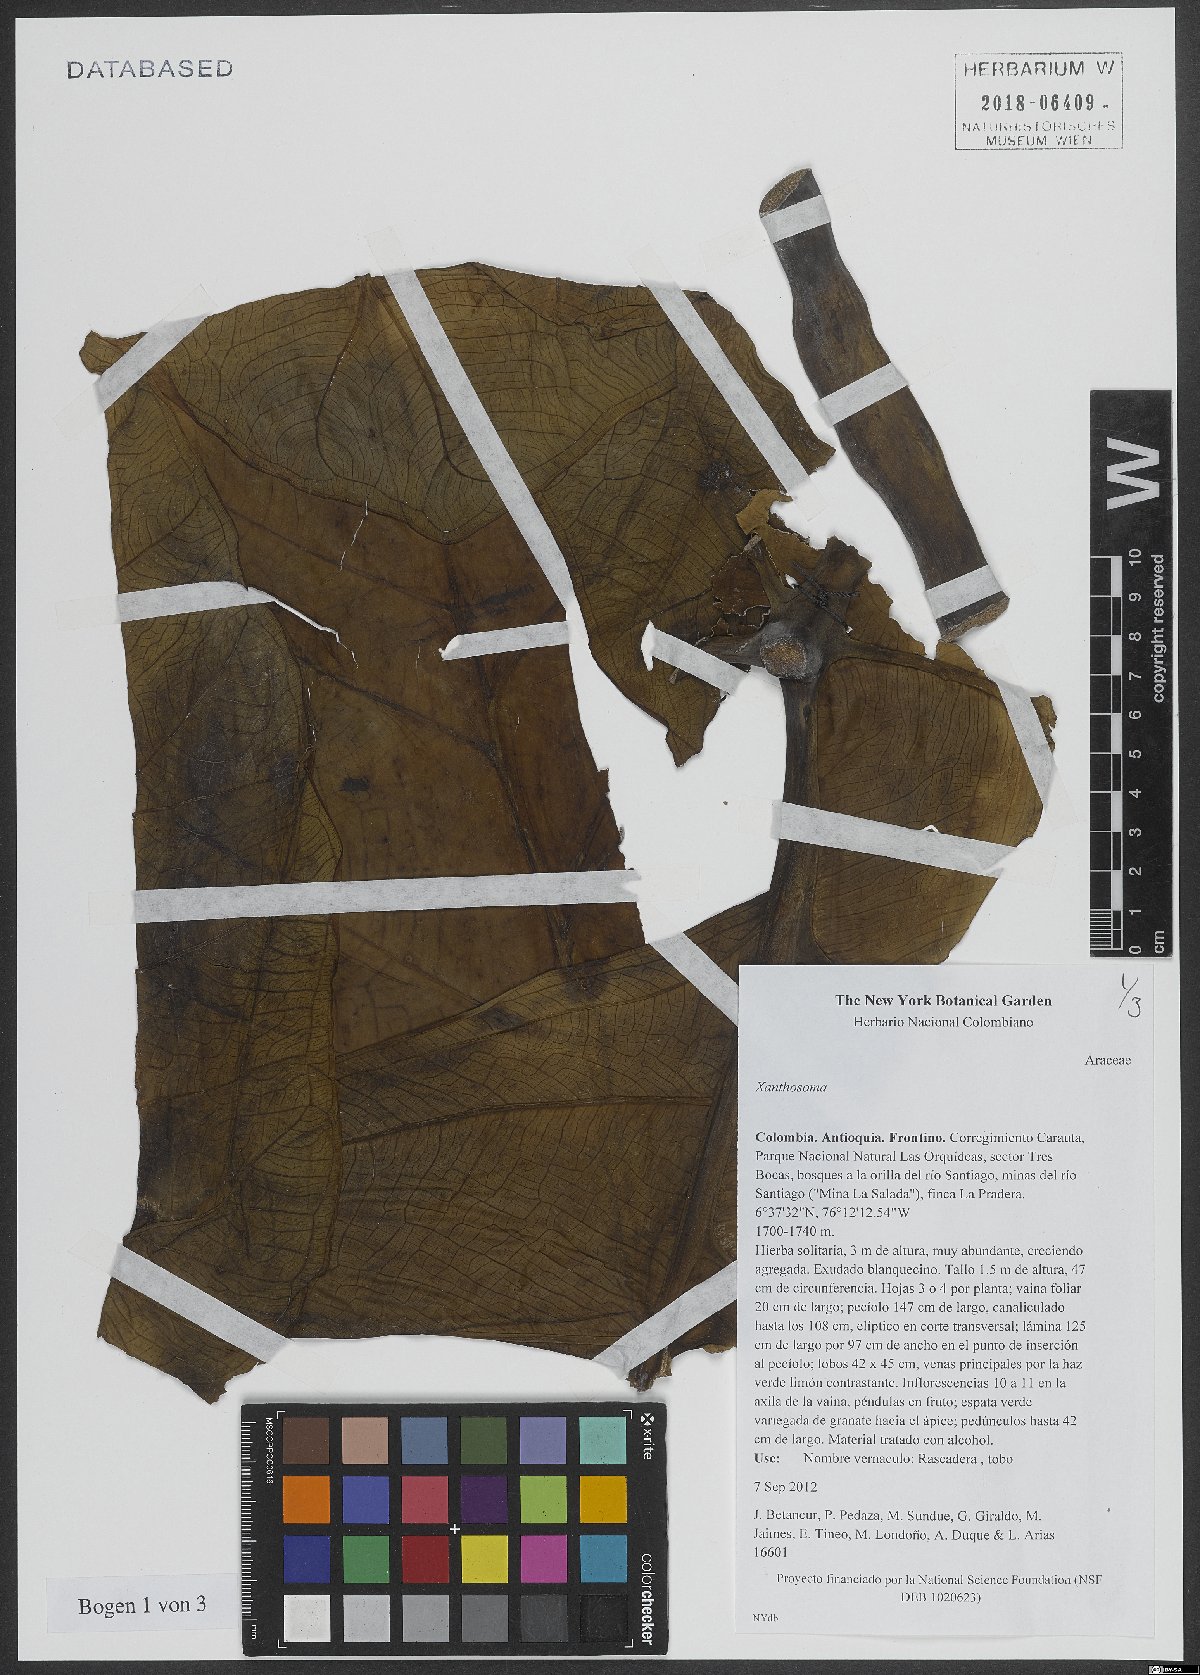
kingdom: Plantae
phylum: Tracheophyta
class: Liliopsida
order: Alismatales
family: Araceae
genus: Xanthosoma
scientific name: Xanthosoma
